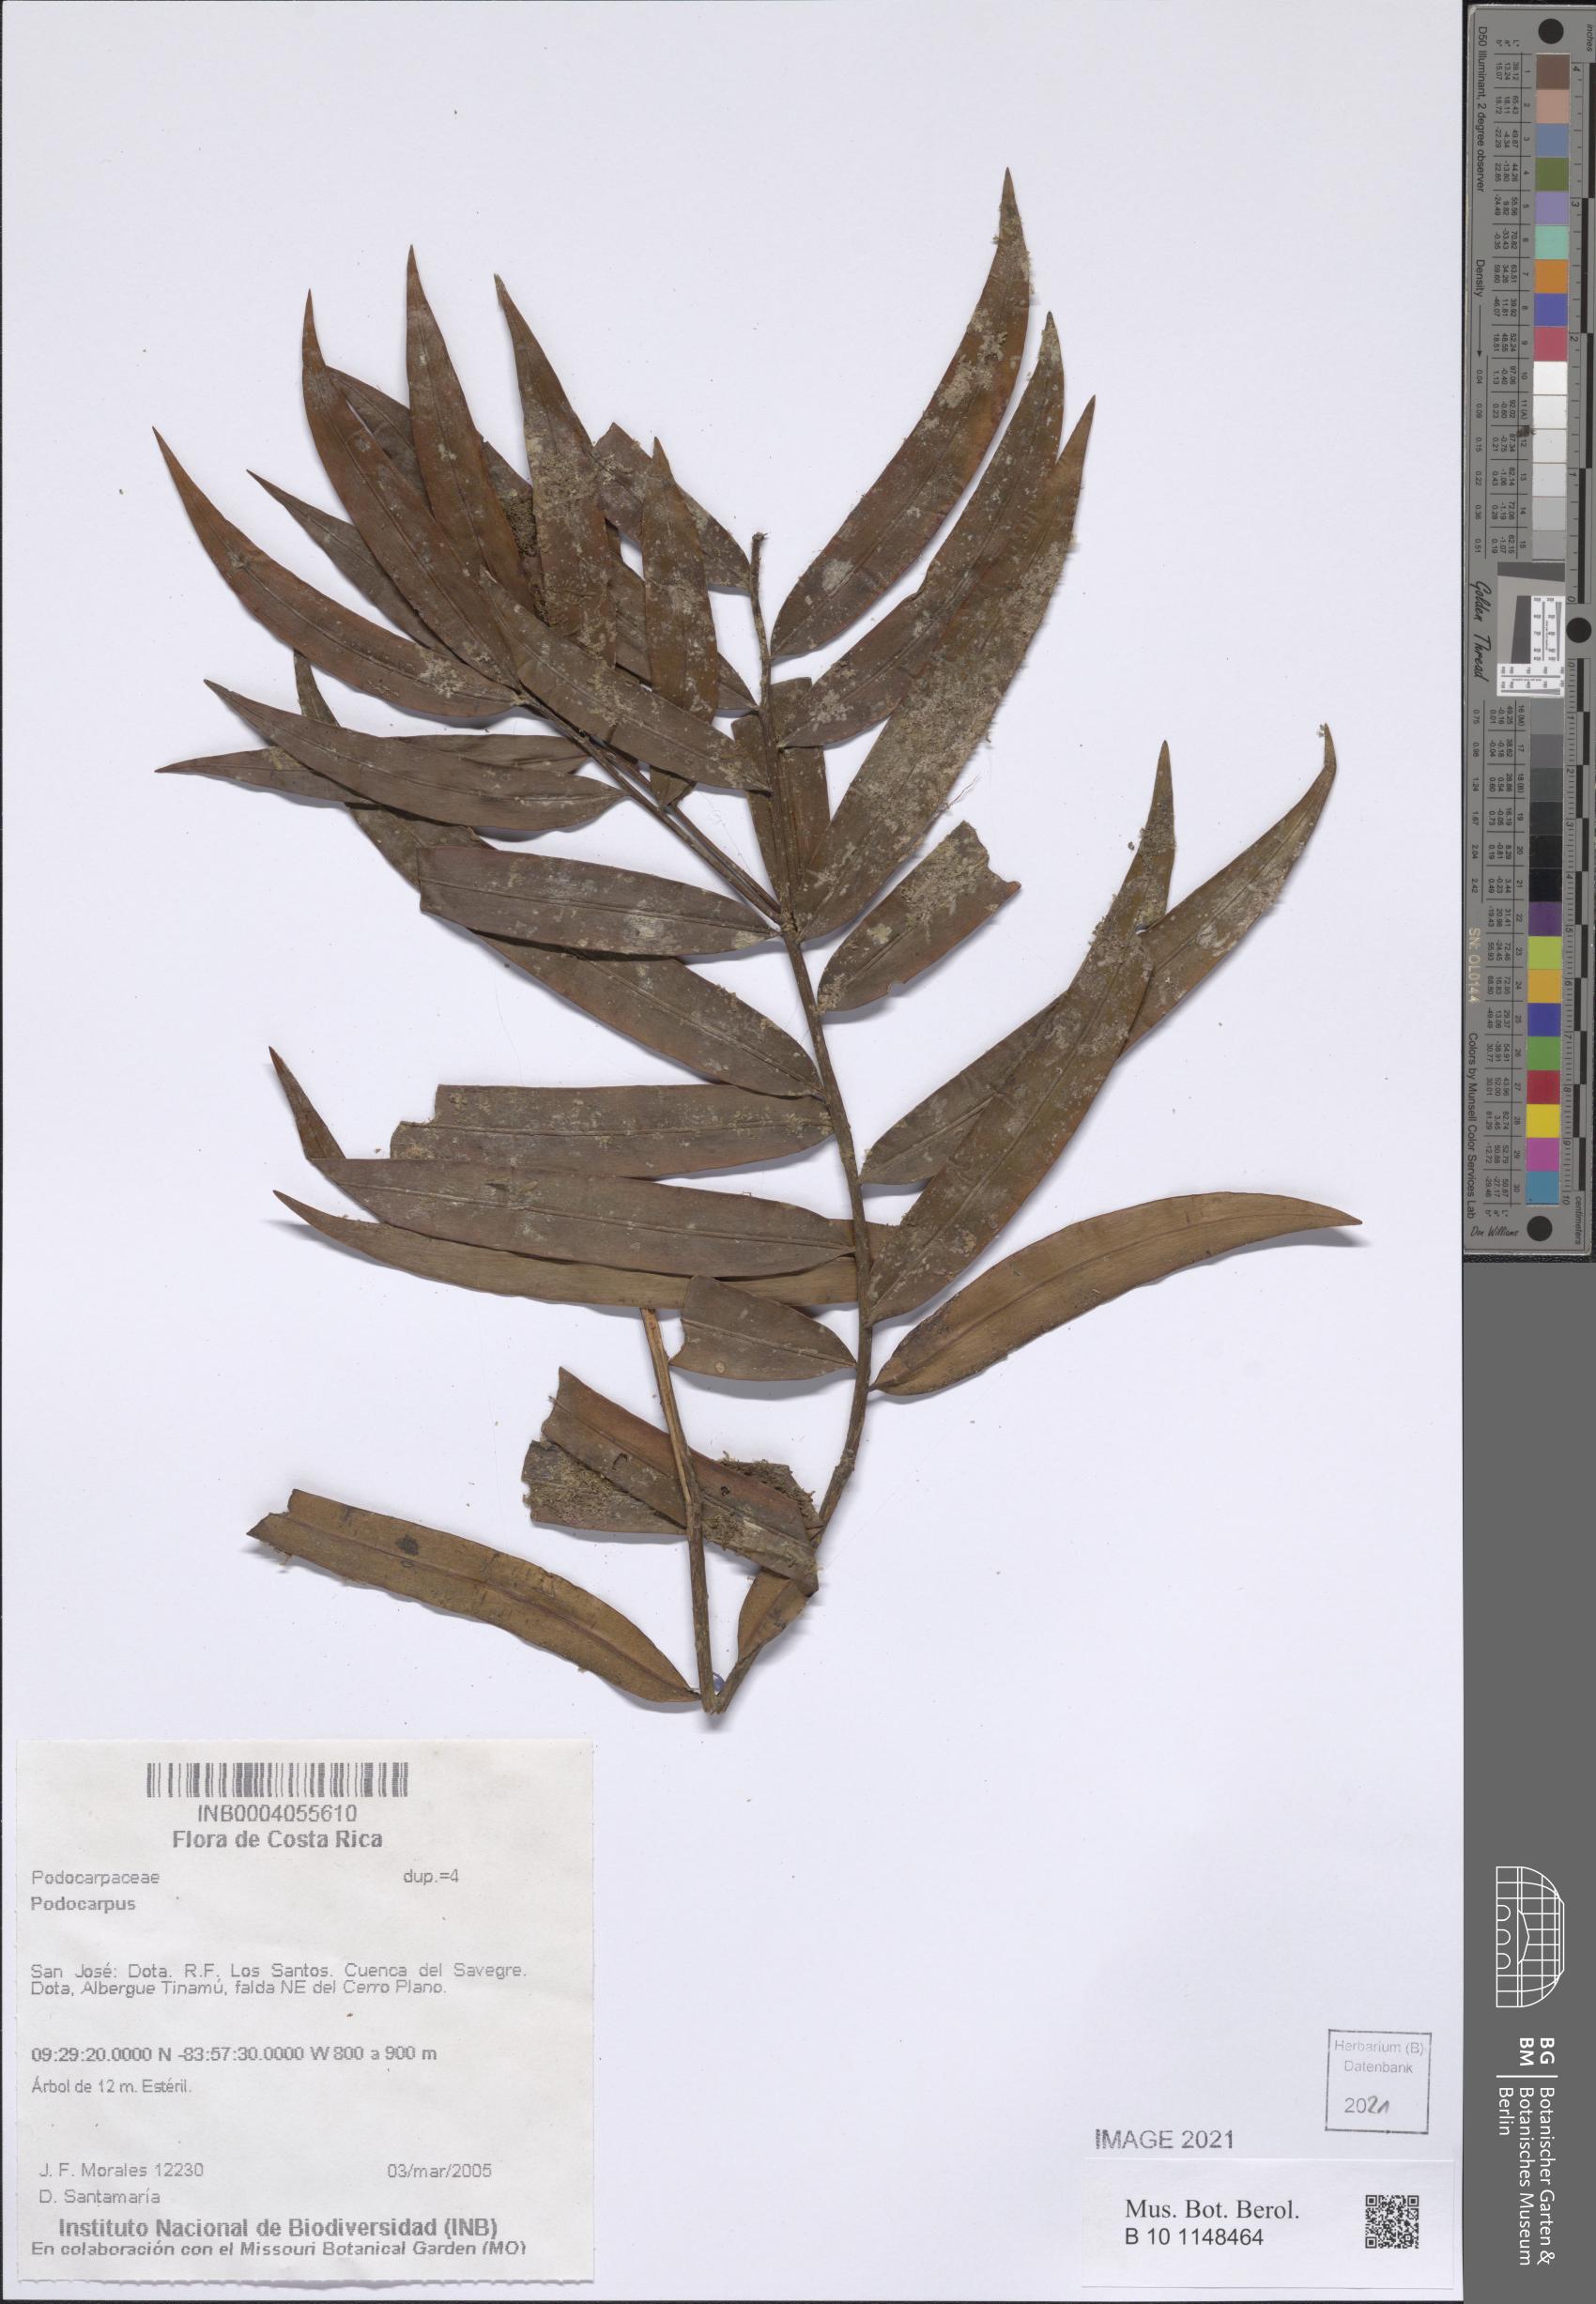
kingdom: Plantae
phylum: Tracheophyta
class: Pinopsida
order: Pinales
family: Podocarpaceae
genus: Podocarpus
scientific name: Podocarpus
